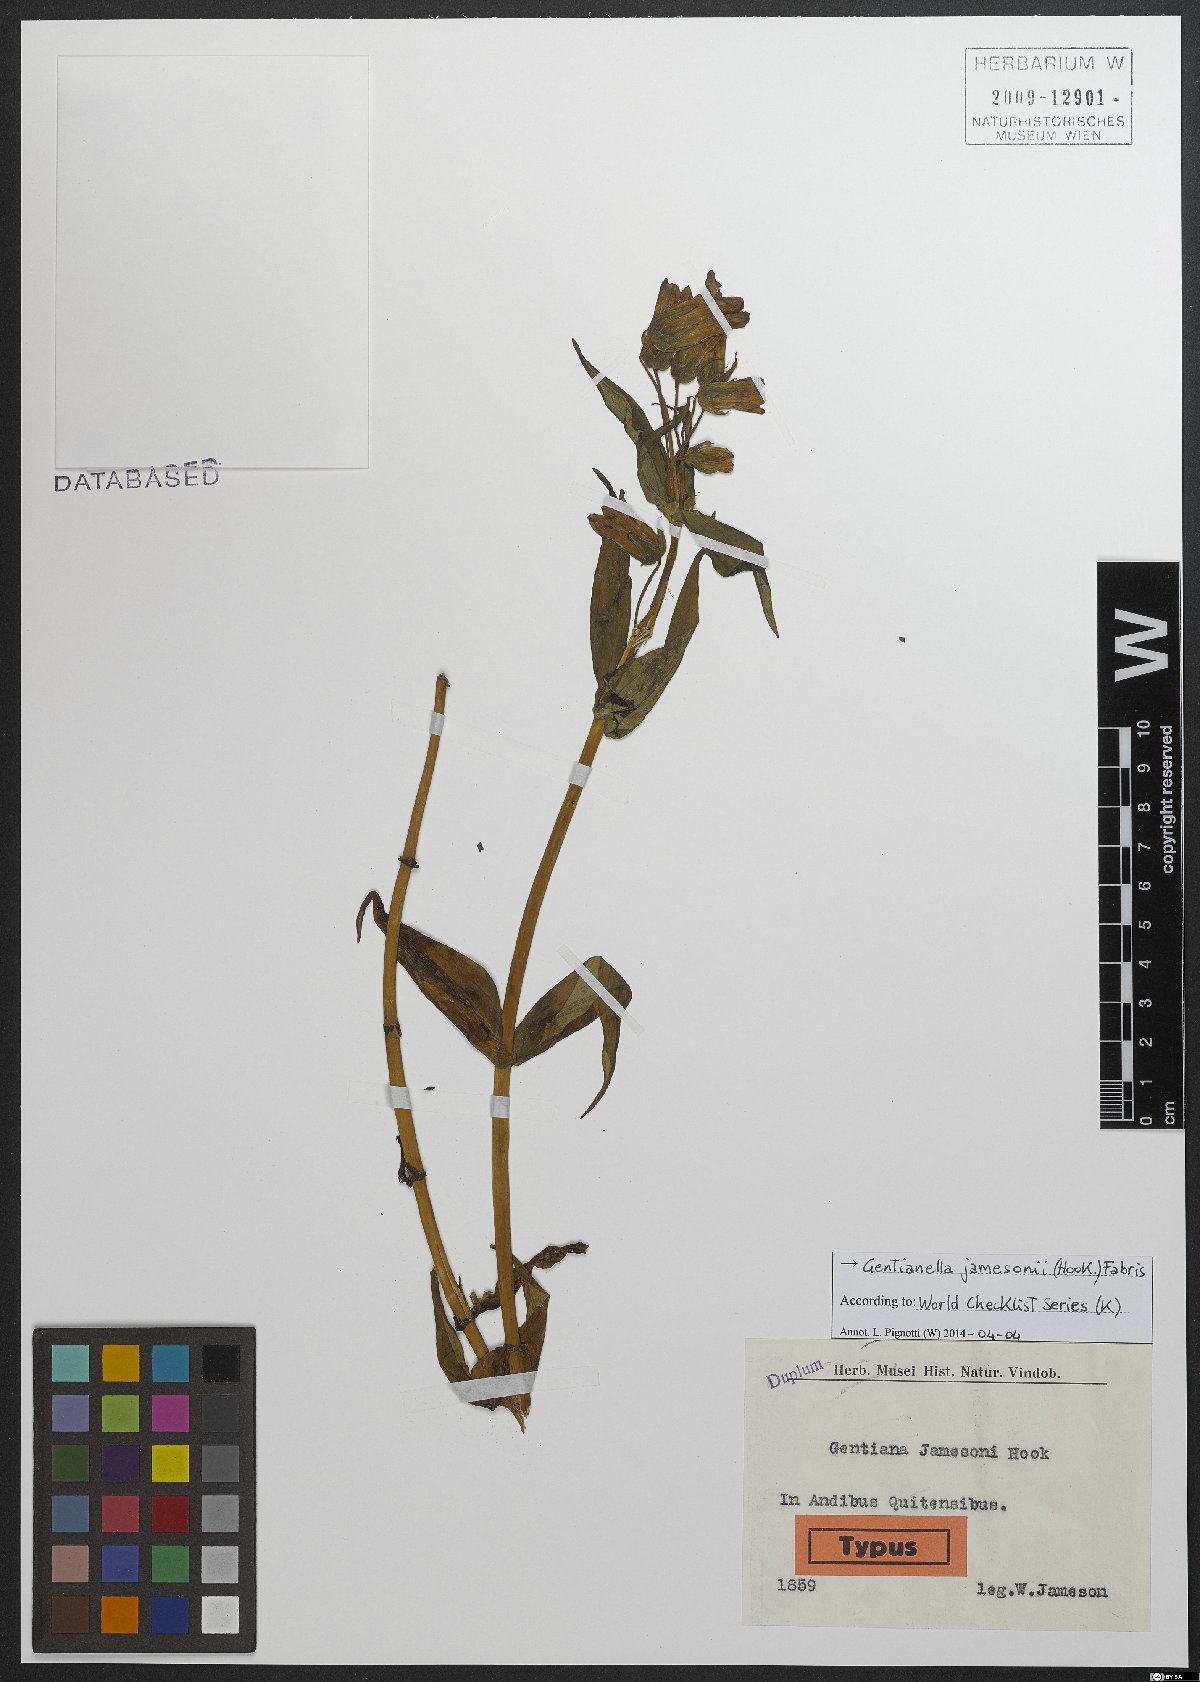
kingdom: Plantae
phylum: Tracheophyta
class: Magnoliopsida
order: Gentianales
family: Gentianaceae
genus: Gentianella
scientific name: Gentianella jamesonii
